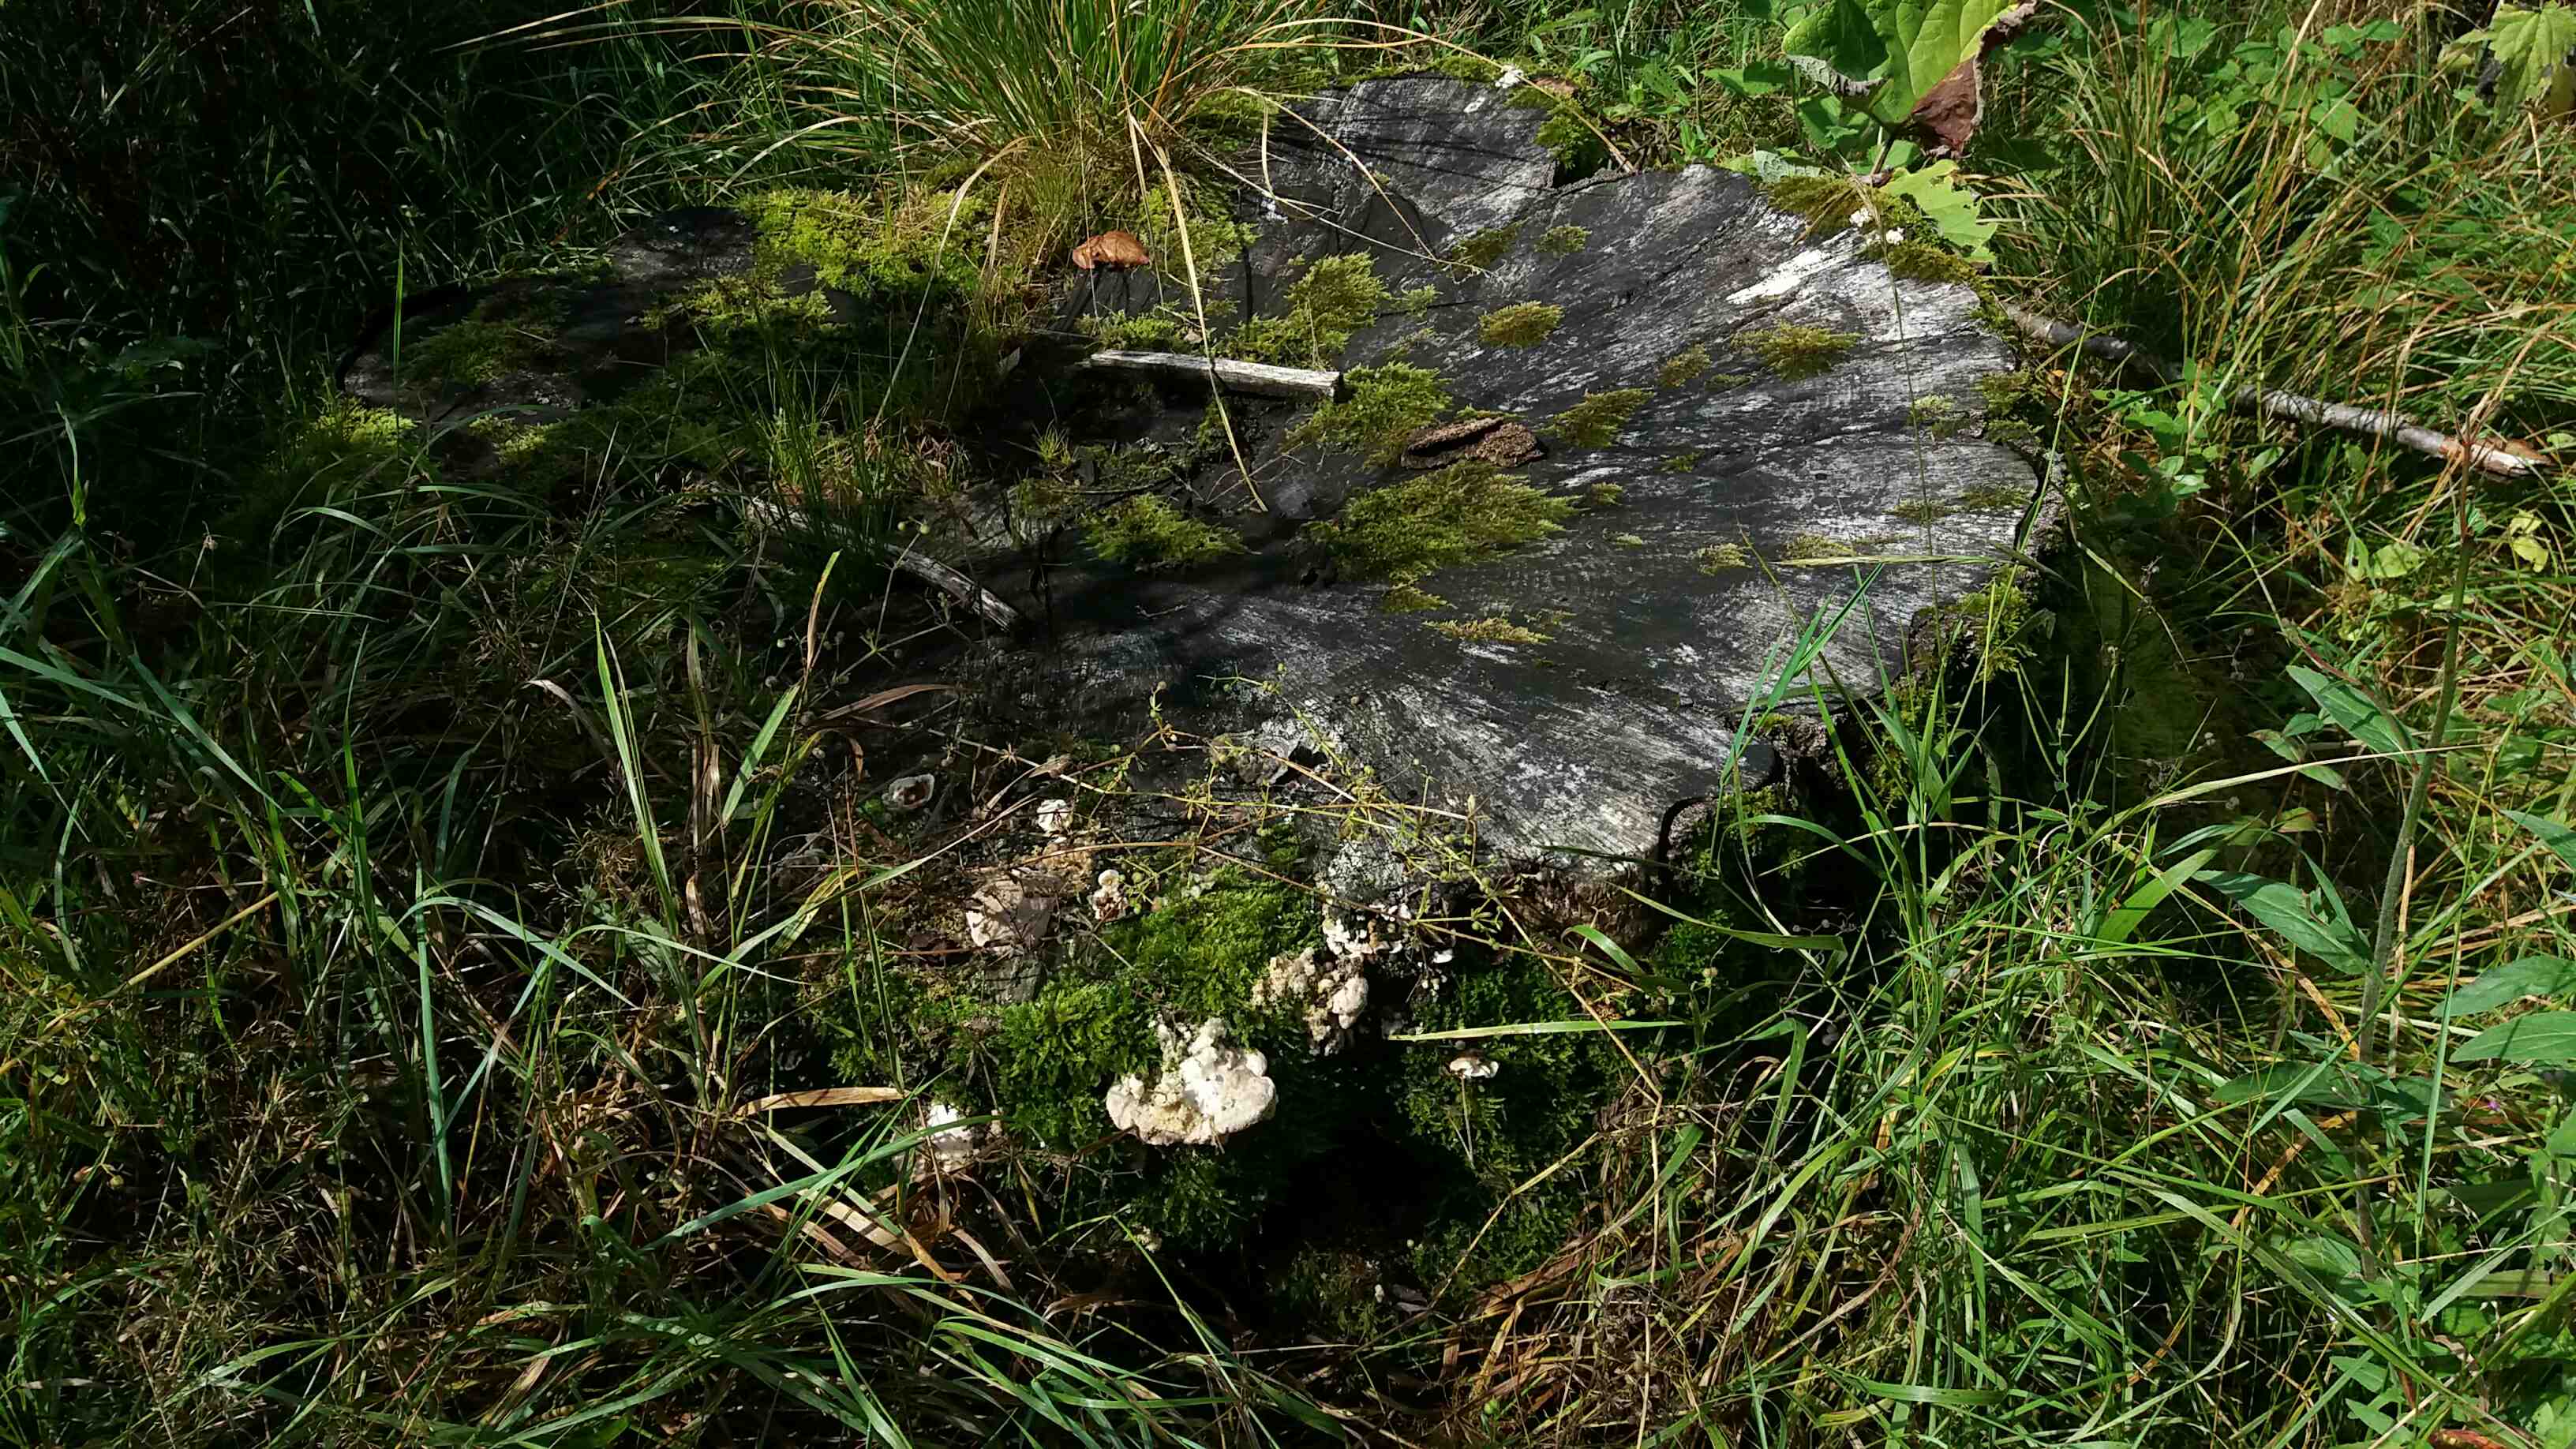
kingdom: Fungi
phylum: Basidiomycota
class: Agaricomycetes
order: Polyporales
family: Polyporaceae
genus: Trametes
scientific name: Trametes gibbosa
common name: puklet læderporesvamp
